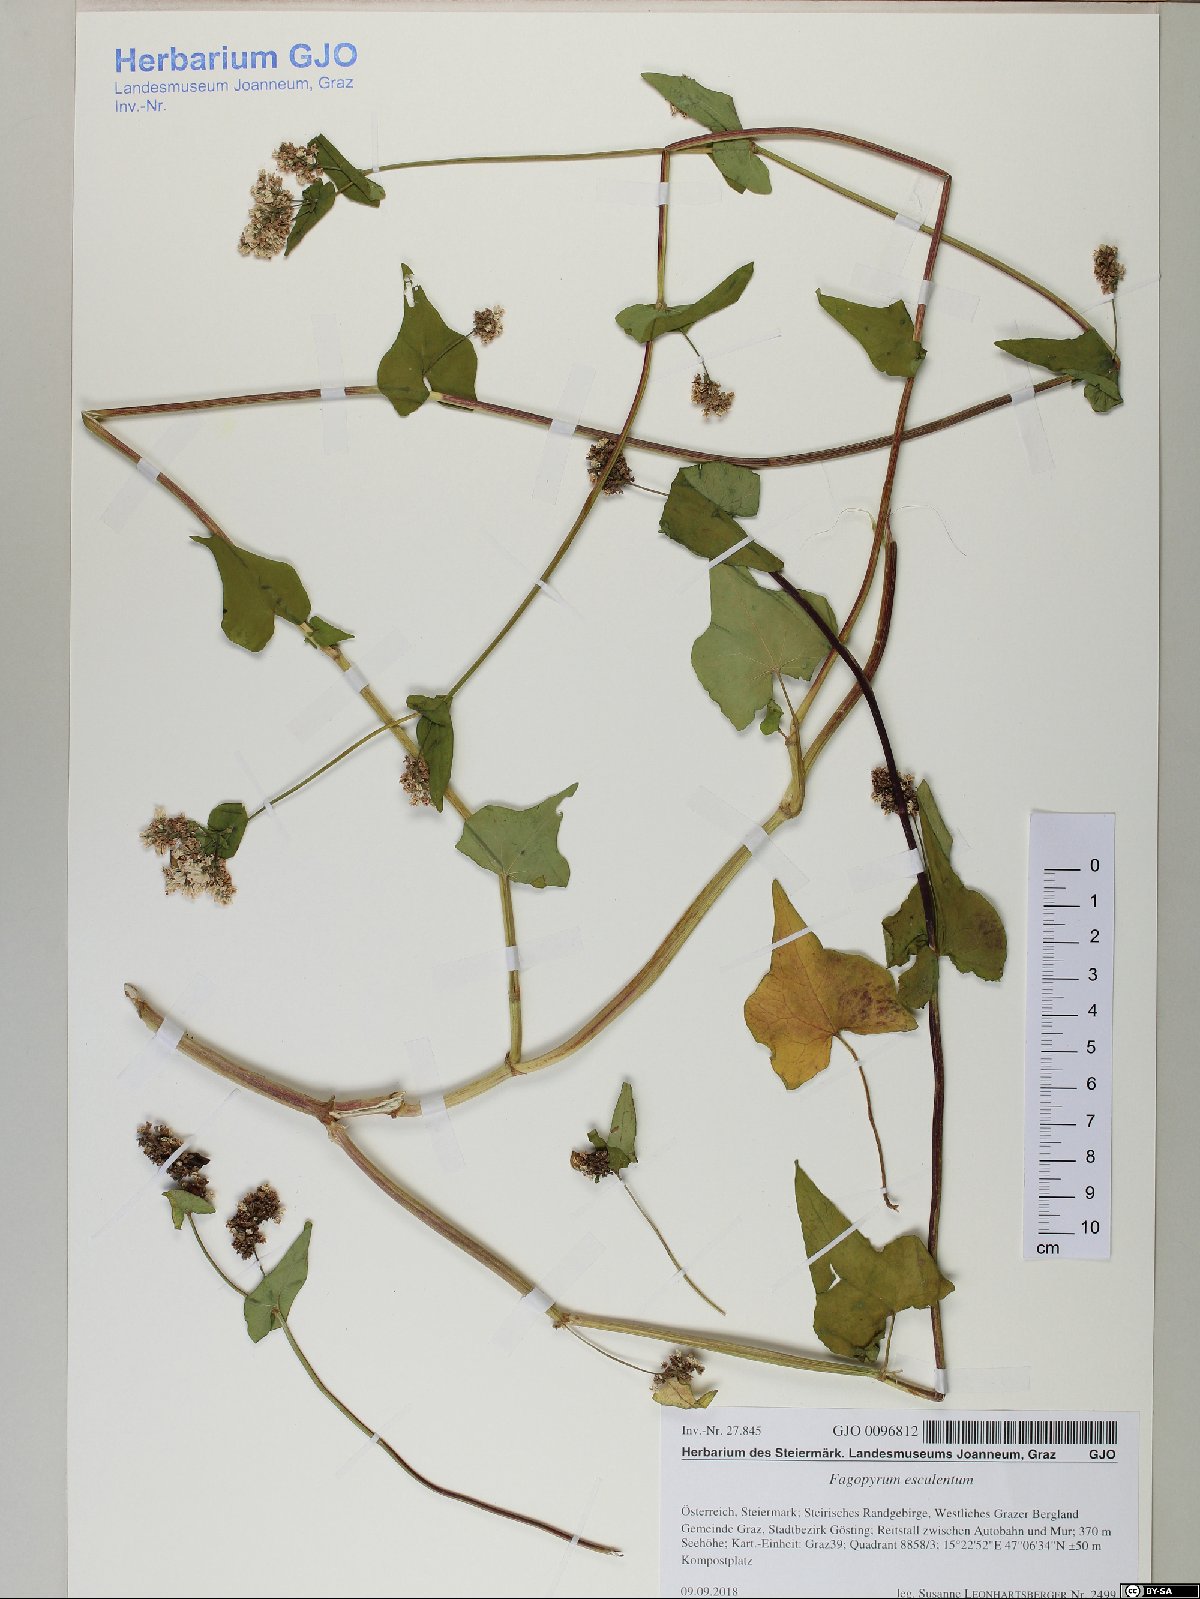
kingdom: Plantae
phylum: Tracheophyta
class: Magnoliopsida
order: Caryophyllales
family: Polygonaceae
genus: Fagopyrum
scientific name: Fagopyrum esculentum
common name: Buckwheat
